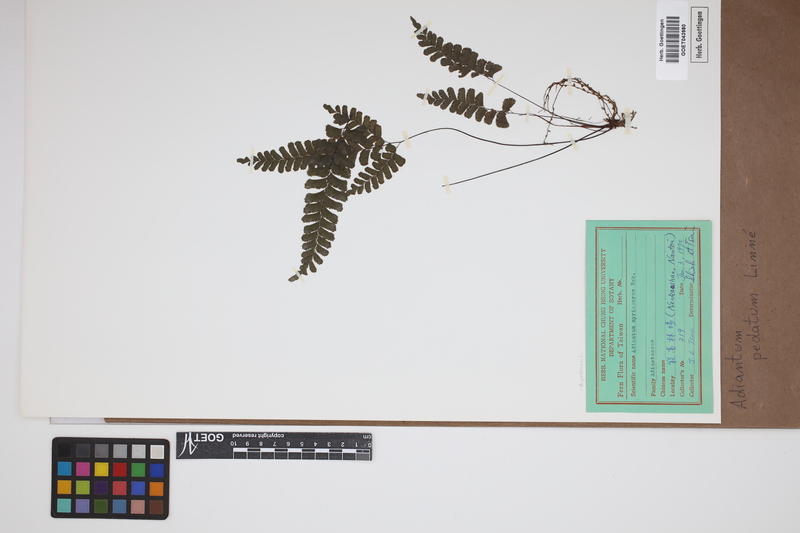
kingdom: Plantae
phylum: Tracheophyta
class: Polypodiopsida
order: Polypodiales
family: Pteridaceae
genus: Adiantum
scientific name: Adiantum pedatum
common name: Five-finger fern
